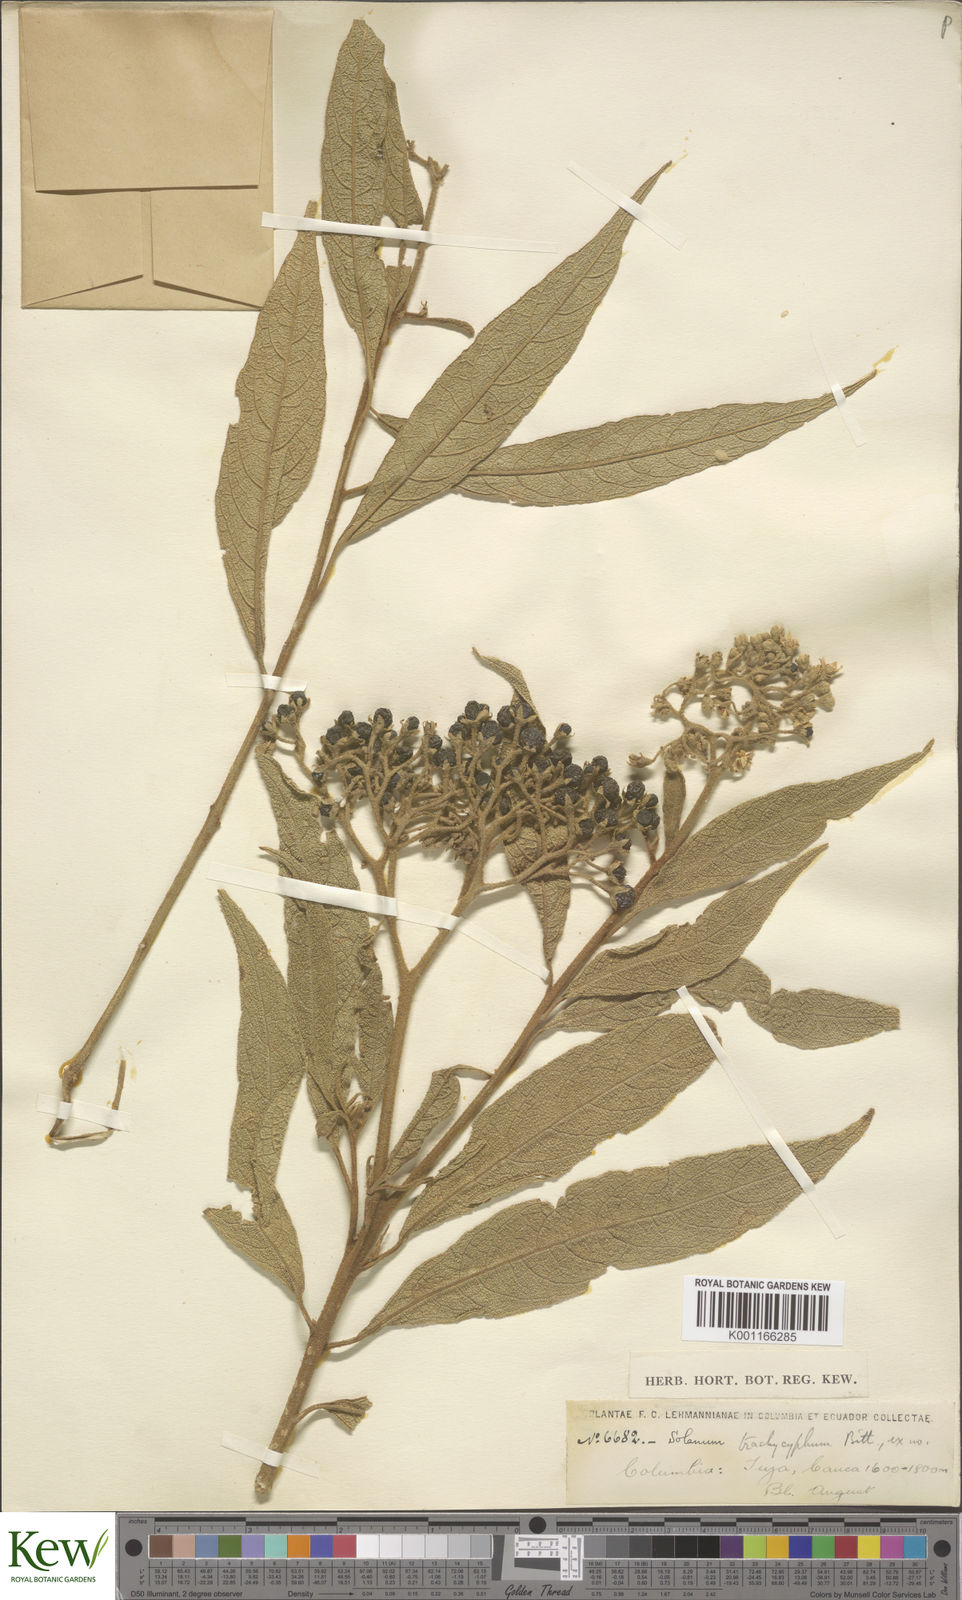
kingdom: Plantae
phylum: Tracheophyta
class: Magnoliopsida
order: Solanales
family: Solanaceae
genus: Solanum
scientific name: Solanum trachycyphum
